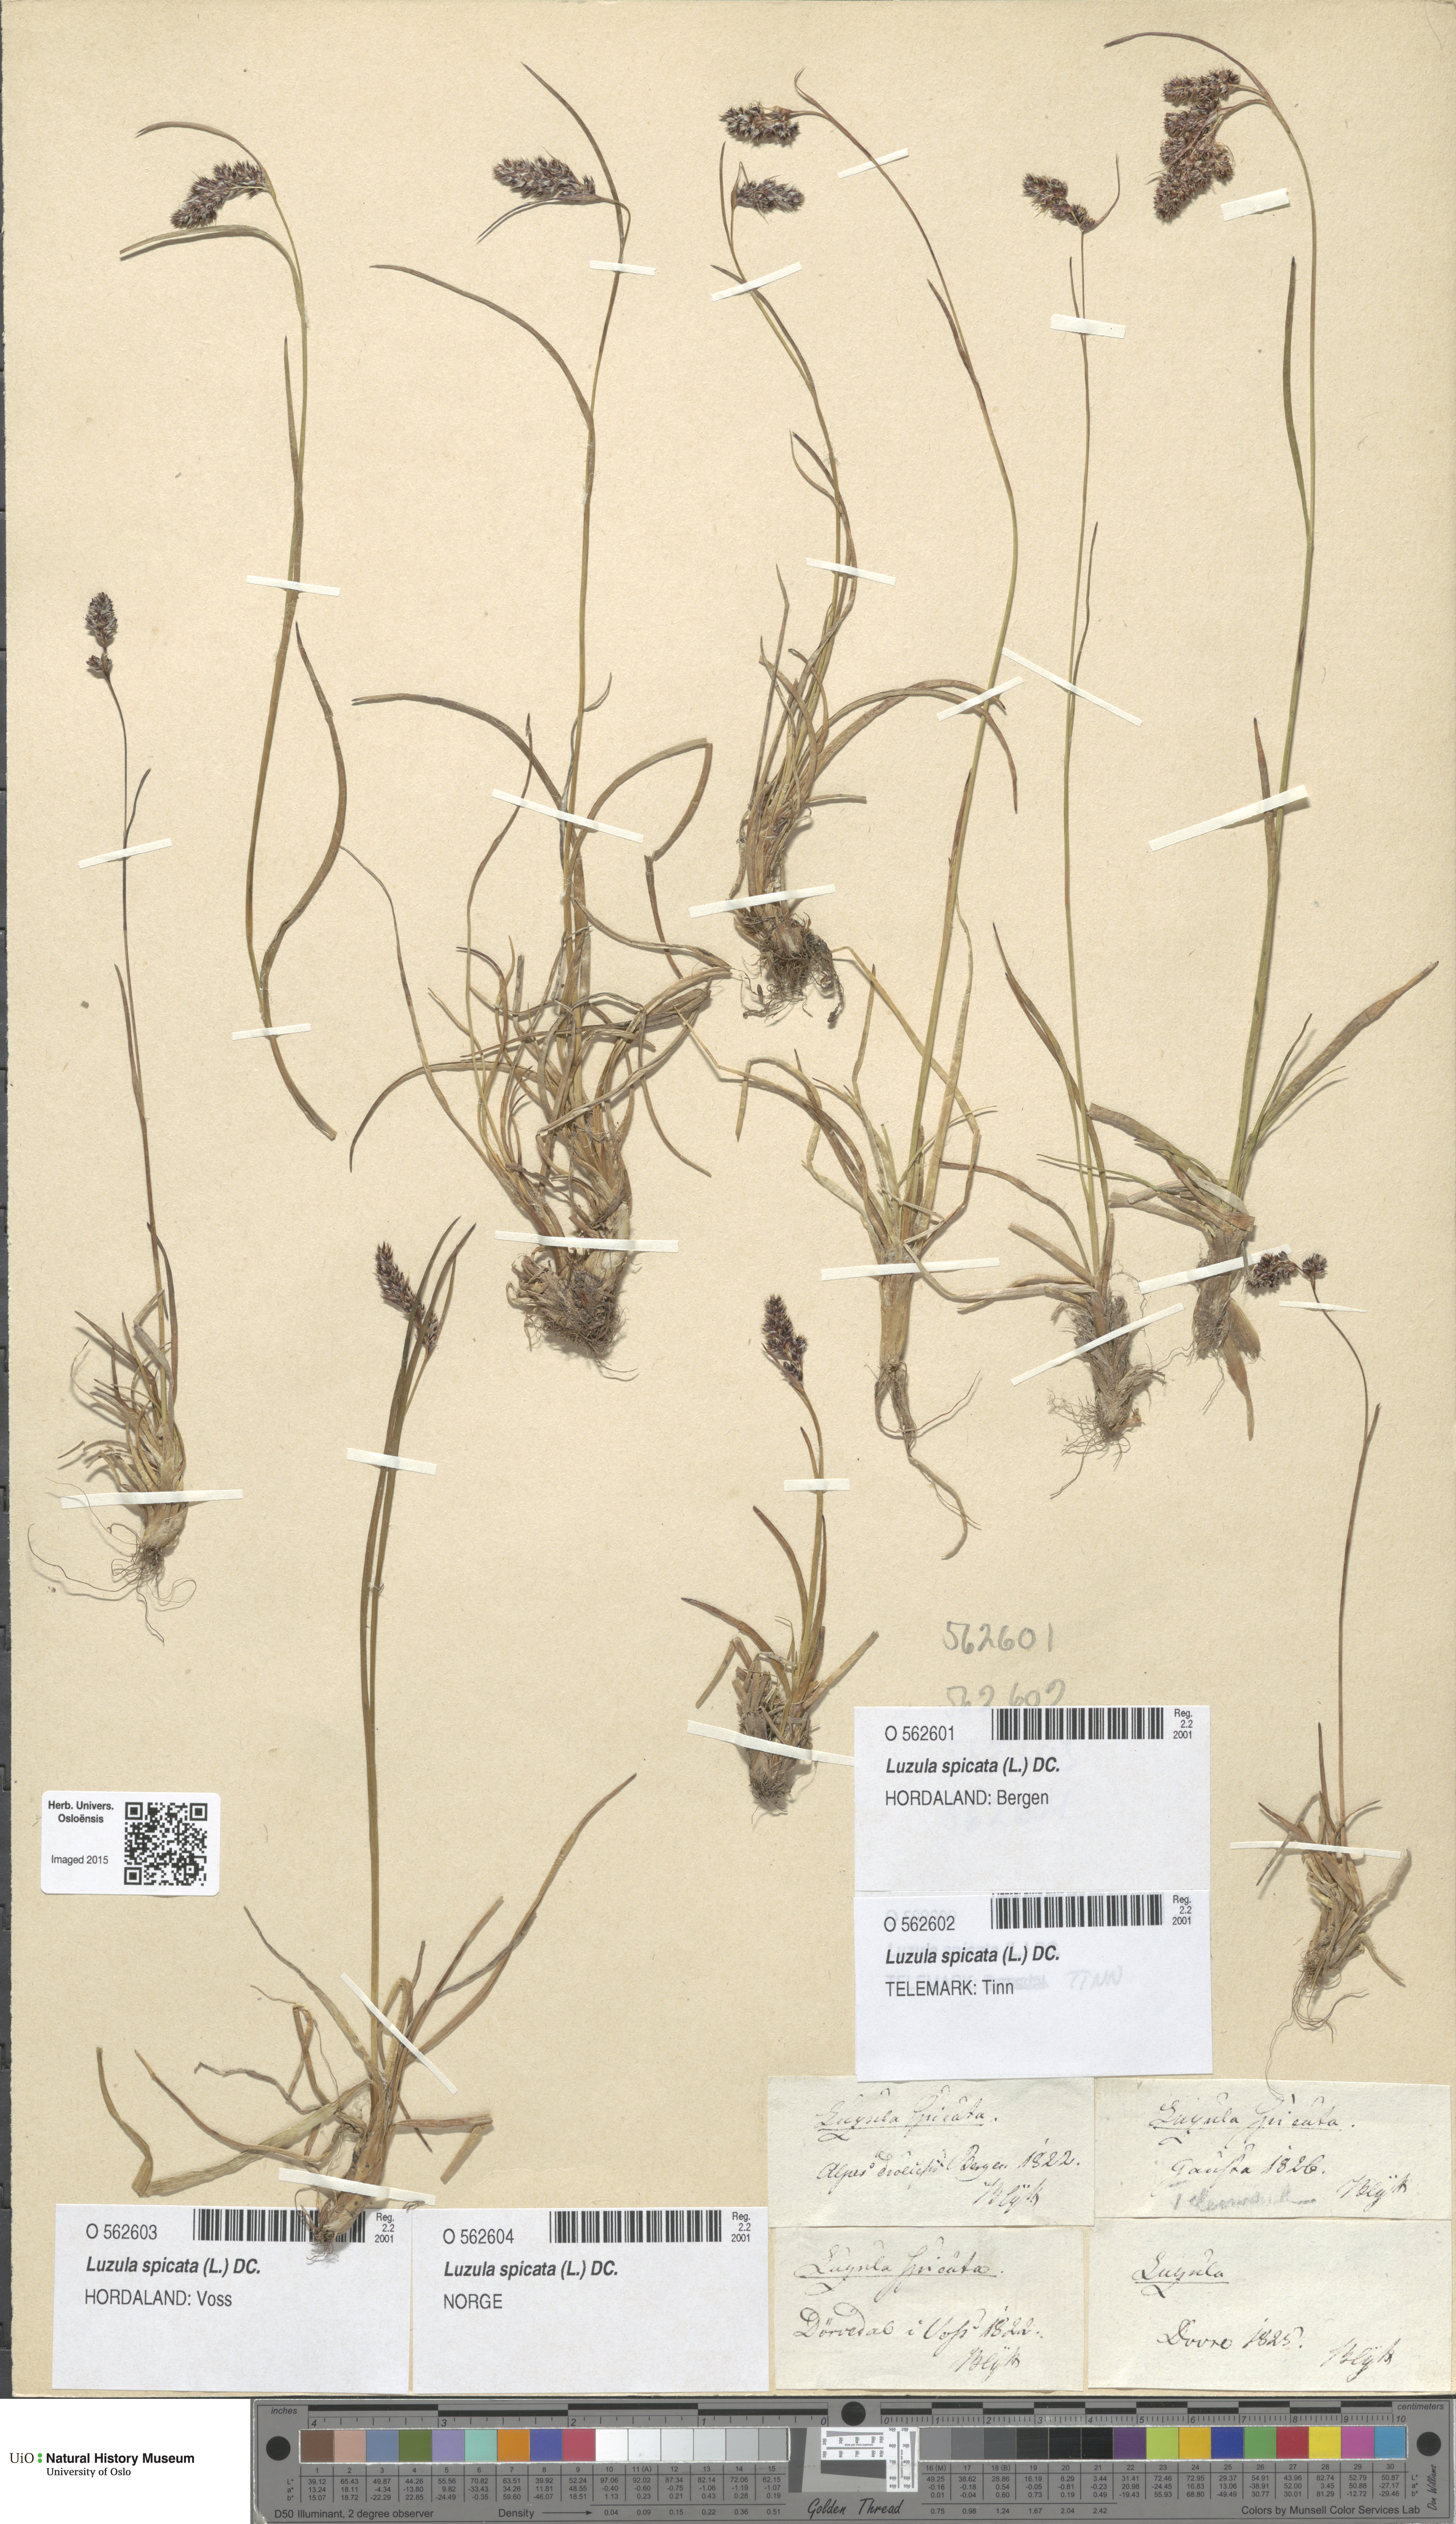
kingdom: Plantae
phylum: Tracheophyta
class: Liliopsida
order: Poales
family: Juncaceae
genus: Luzula
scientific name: Luzula spicata
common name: Spiked wood-rush
